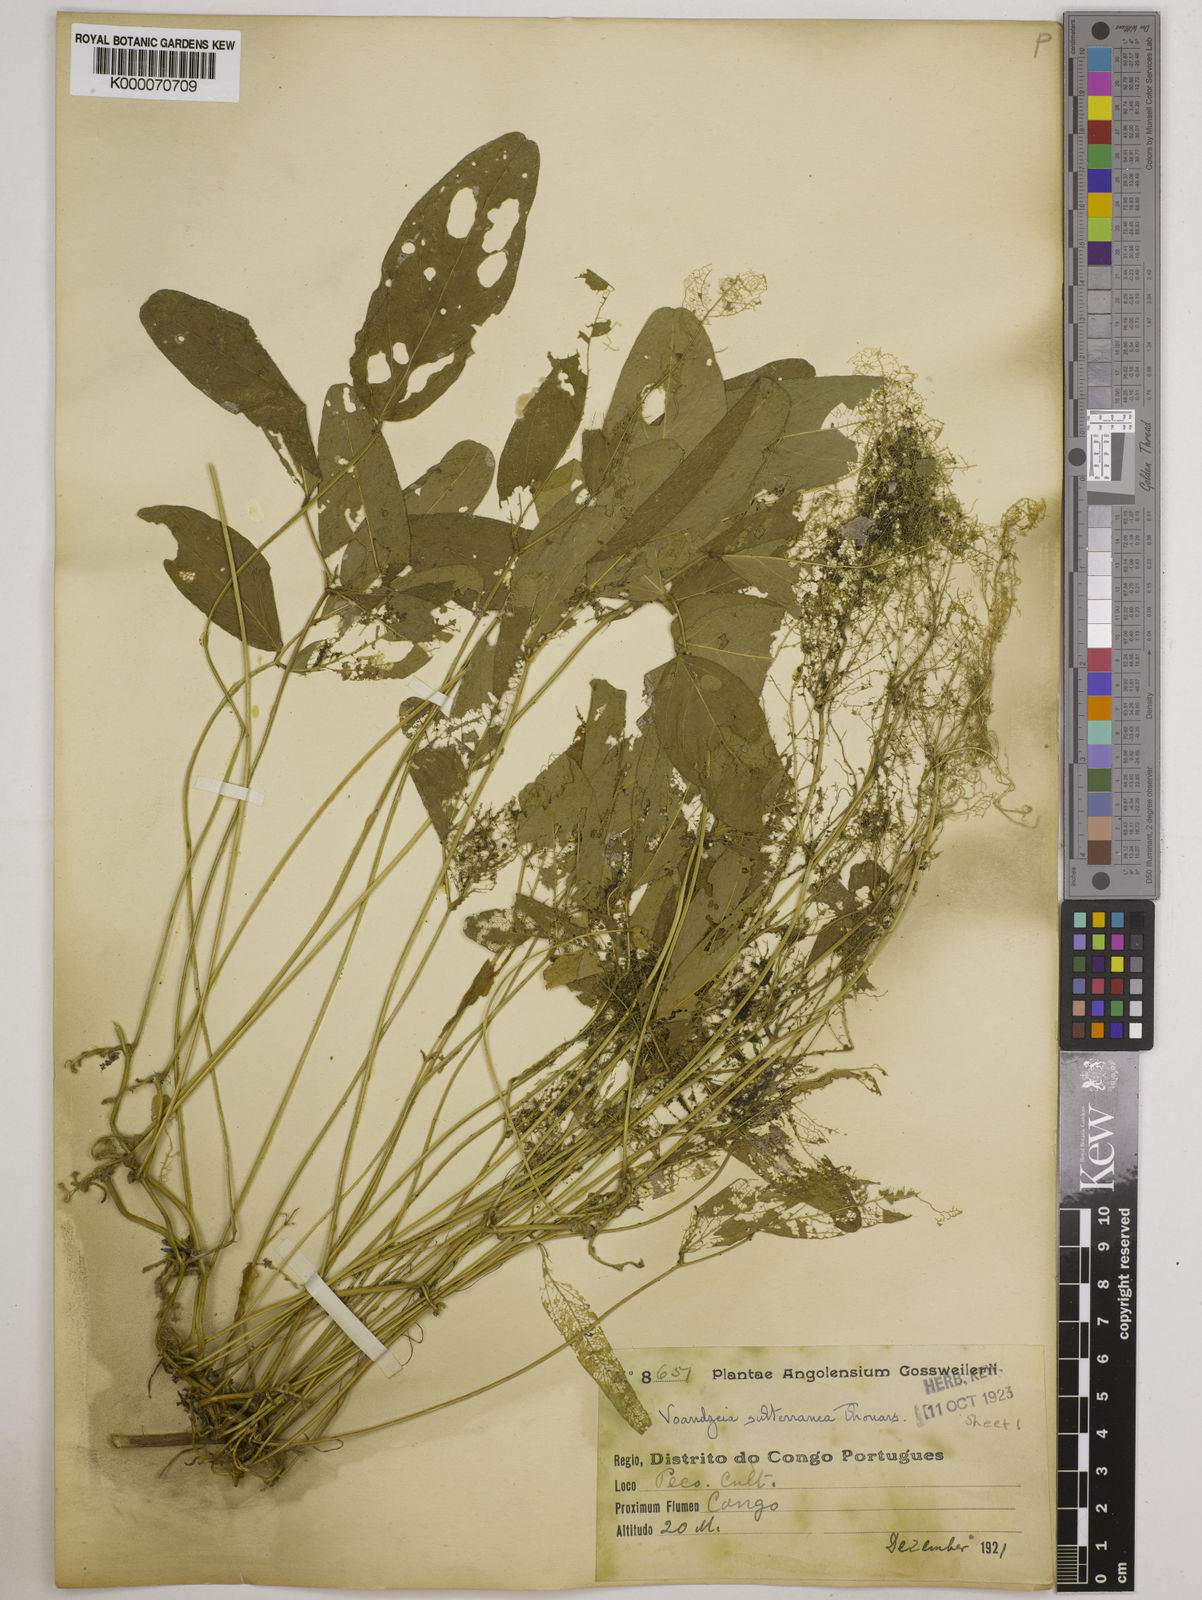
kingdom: Plantae
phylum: Tracheophyta
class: Magnoliopsida
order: Fabales
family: Fabaceae
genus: Vigna
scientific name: Vigna subterranea
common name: Bambara groundnut
